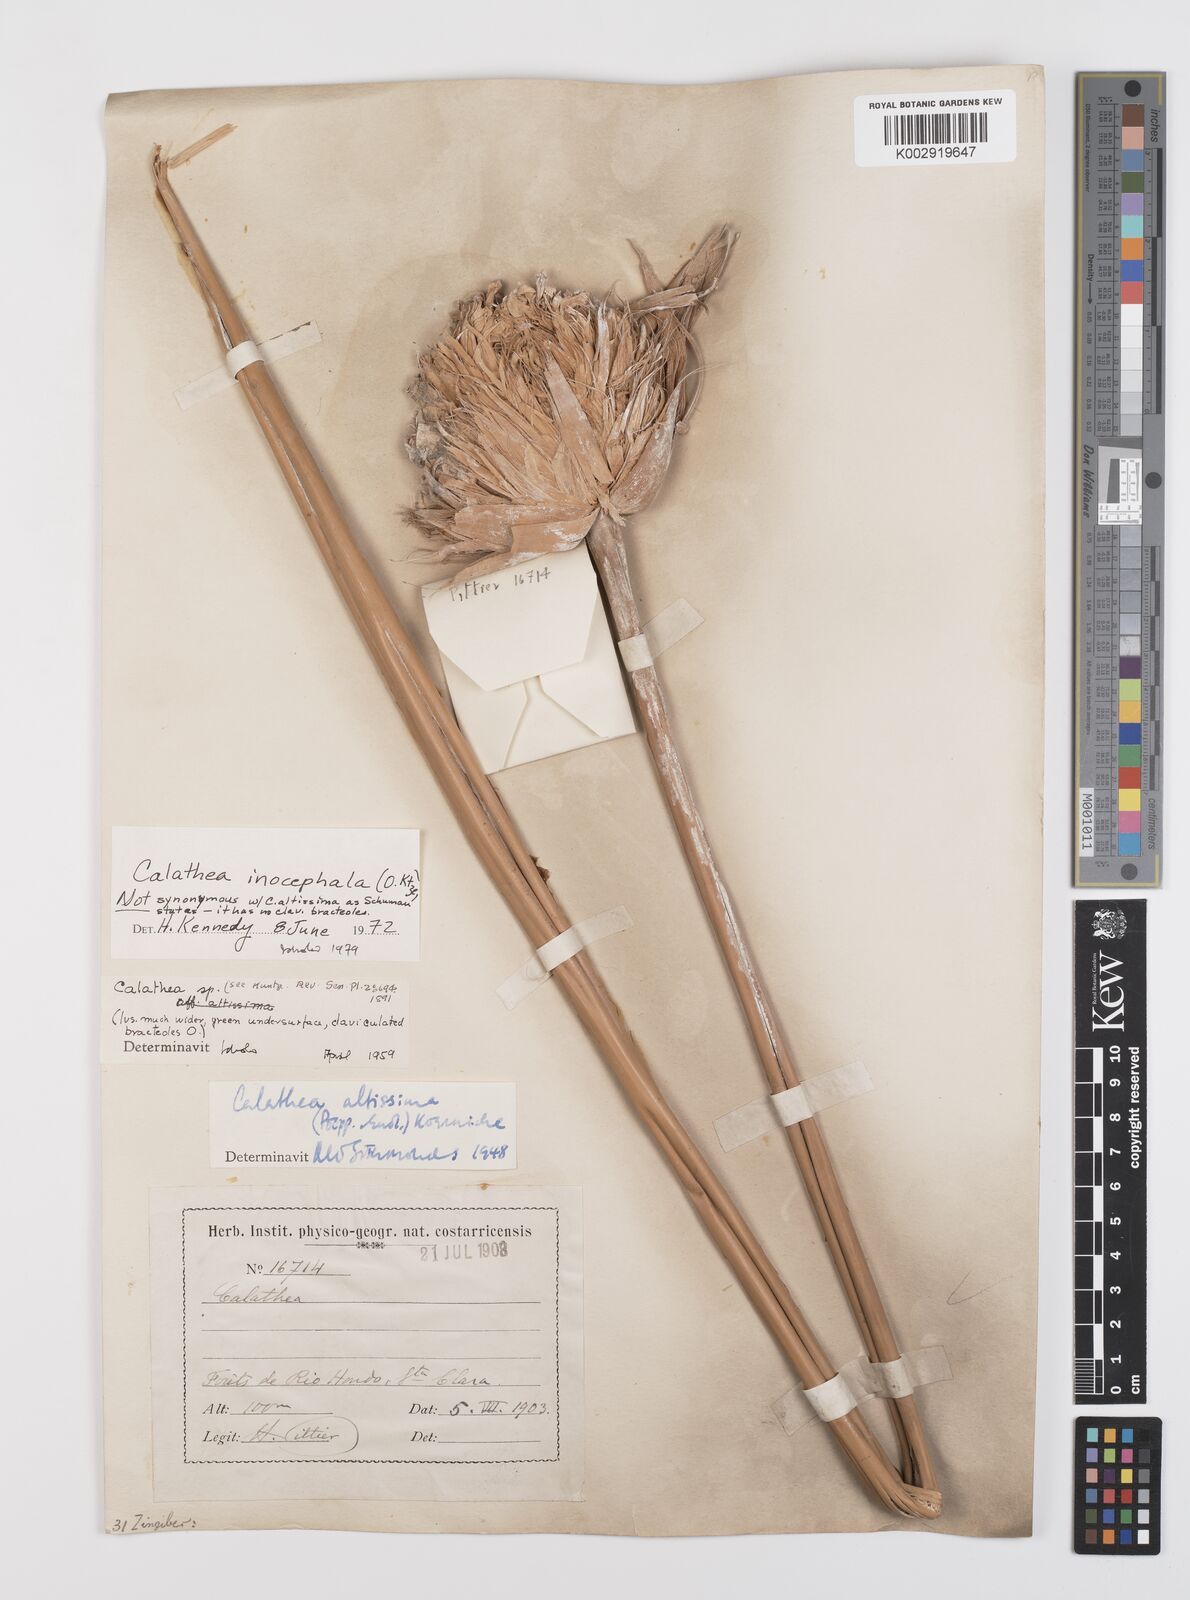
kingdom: Plantae
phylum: Tracheophyta
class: Liliopsida
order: Zingiberales
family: Marantaceae
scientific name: Marantaceae
